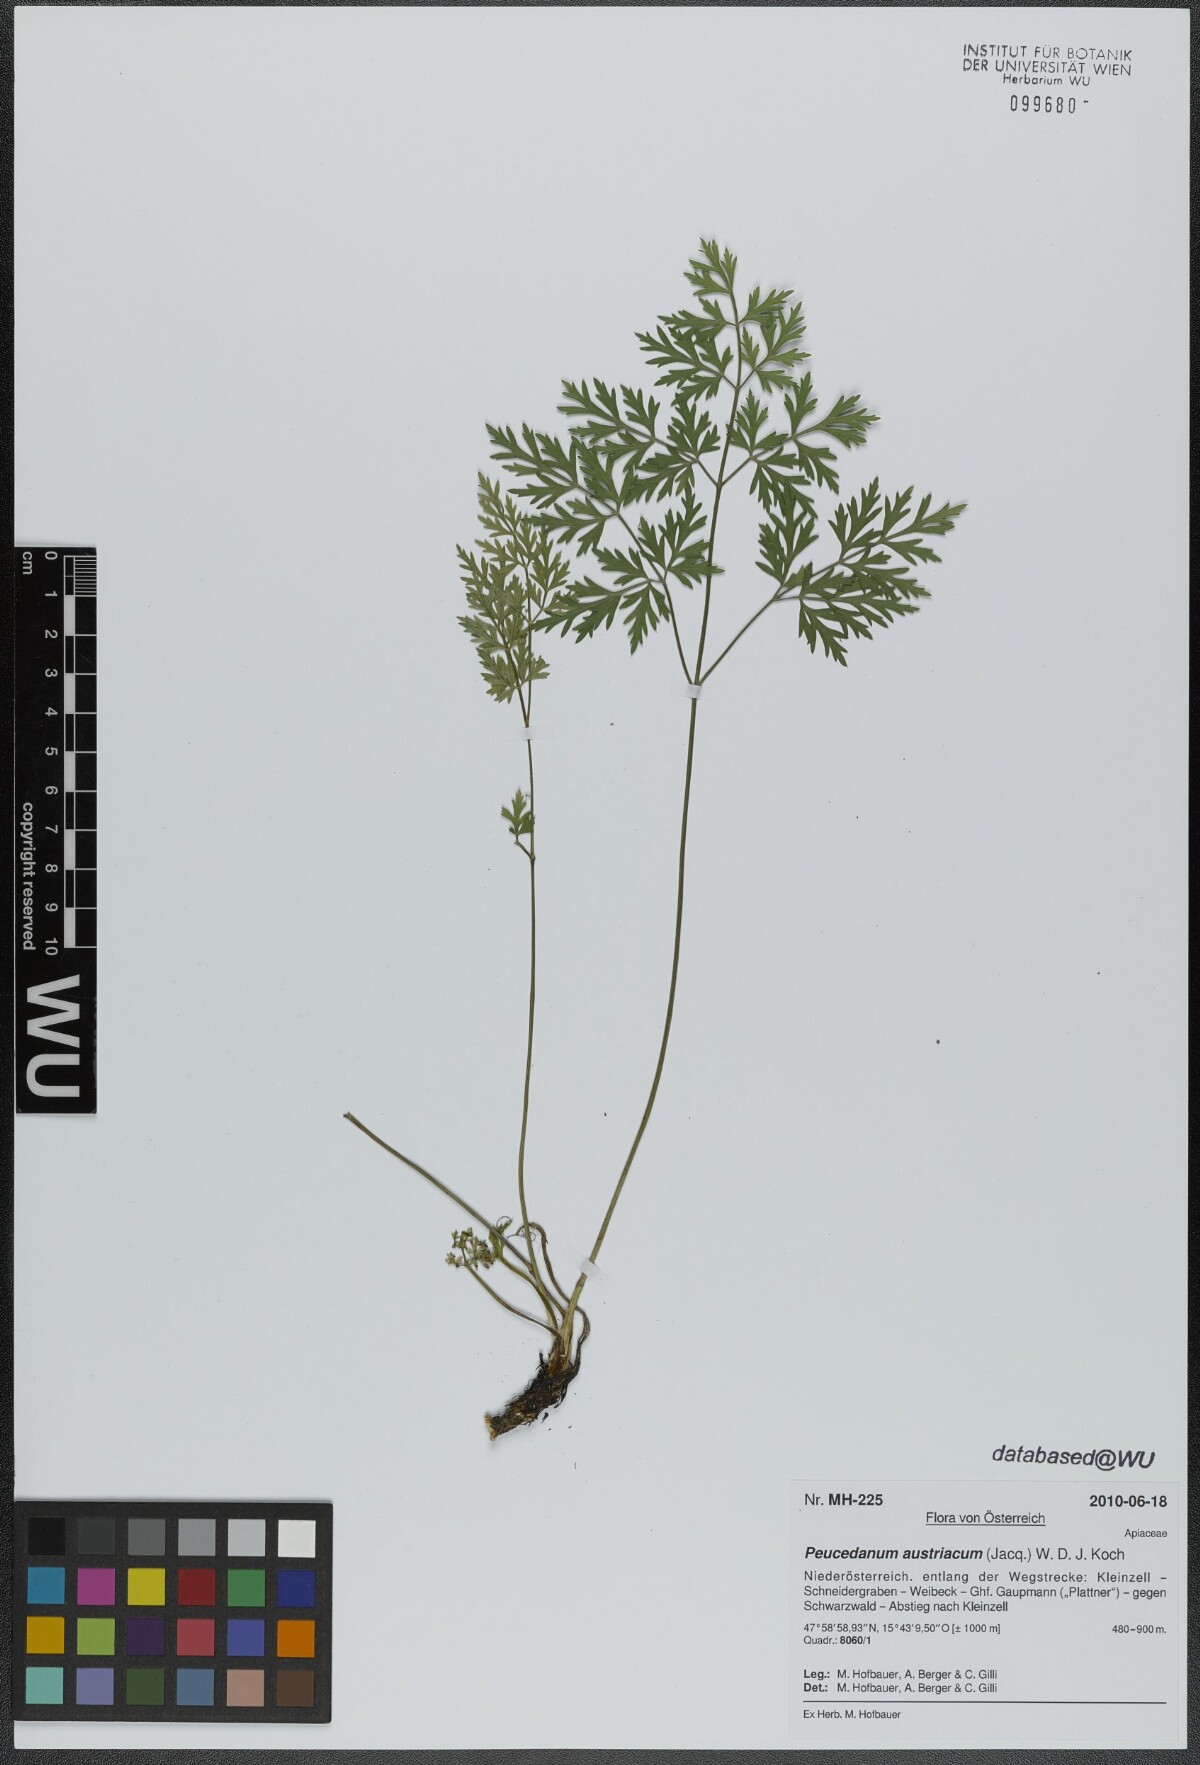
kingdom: Plantae
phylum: Tracheophyta
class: Magnoliopsida
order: Apiales
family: Apiaceae
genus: Peucedanum
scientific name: Peucedanum austriacum
